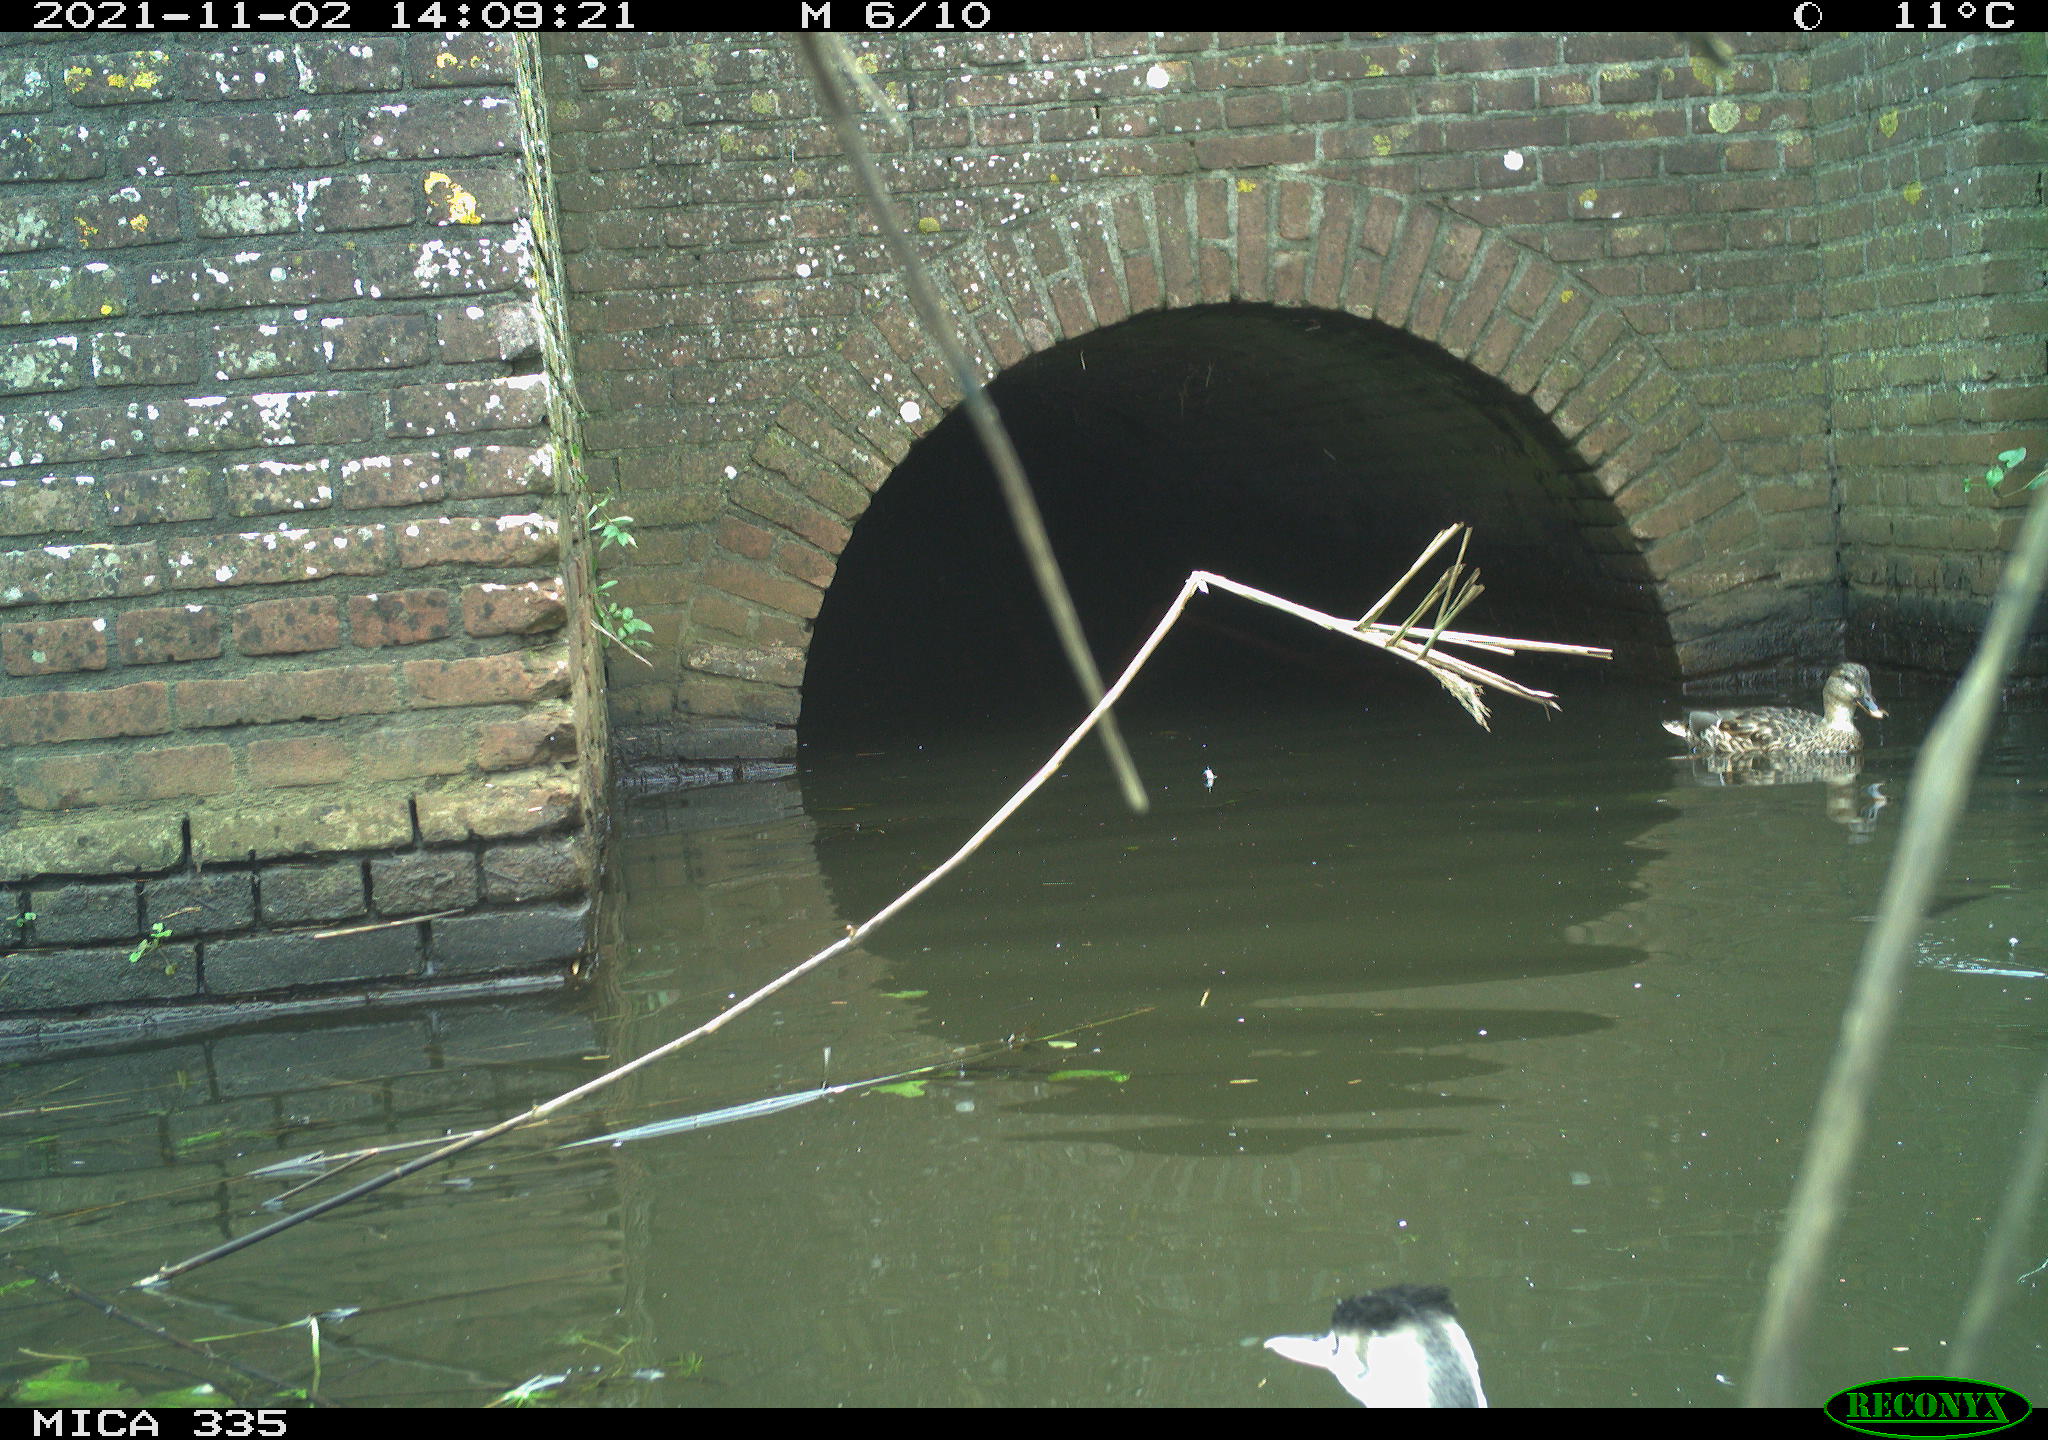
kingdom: Animalia
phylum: Chordata
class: Aves
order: Anseriformes
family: Anatidae
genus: Anas
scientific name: Anas platyrhynchos
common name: Mallard
